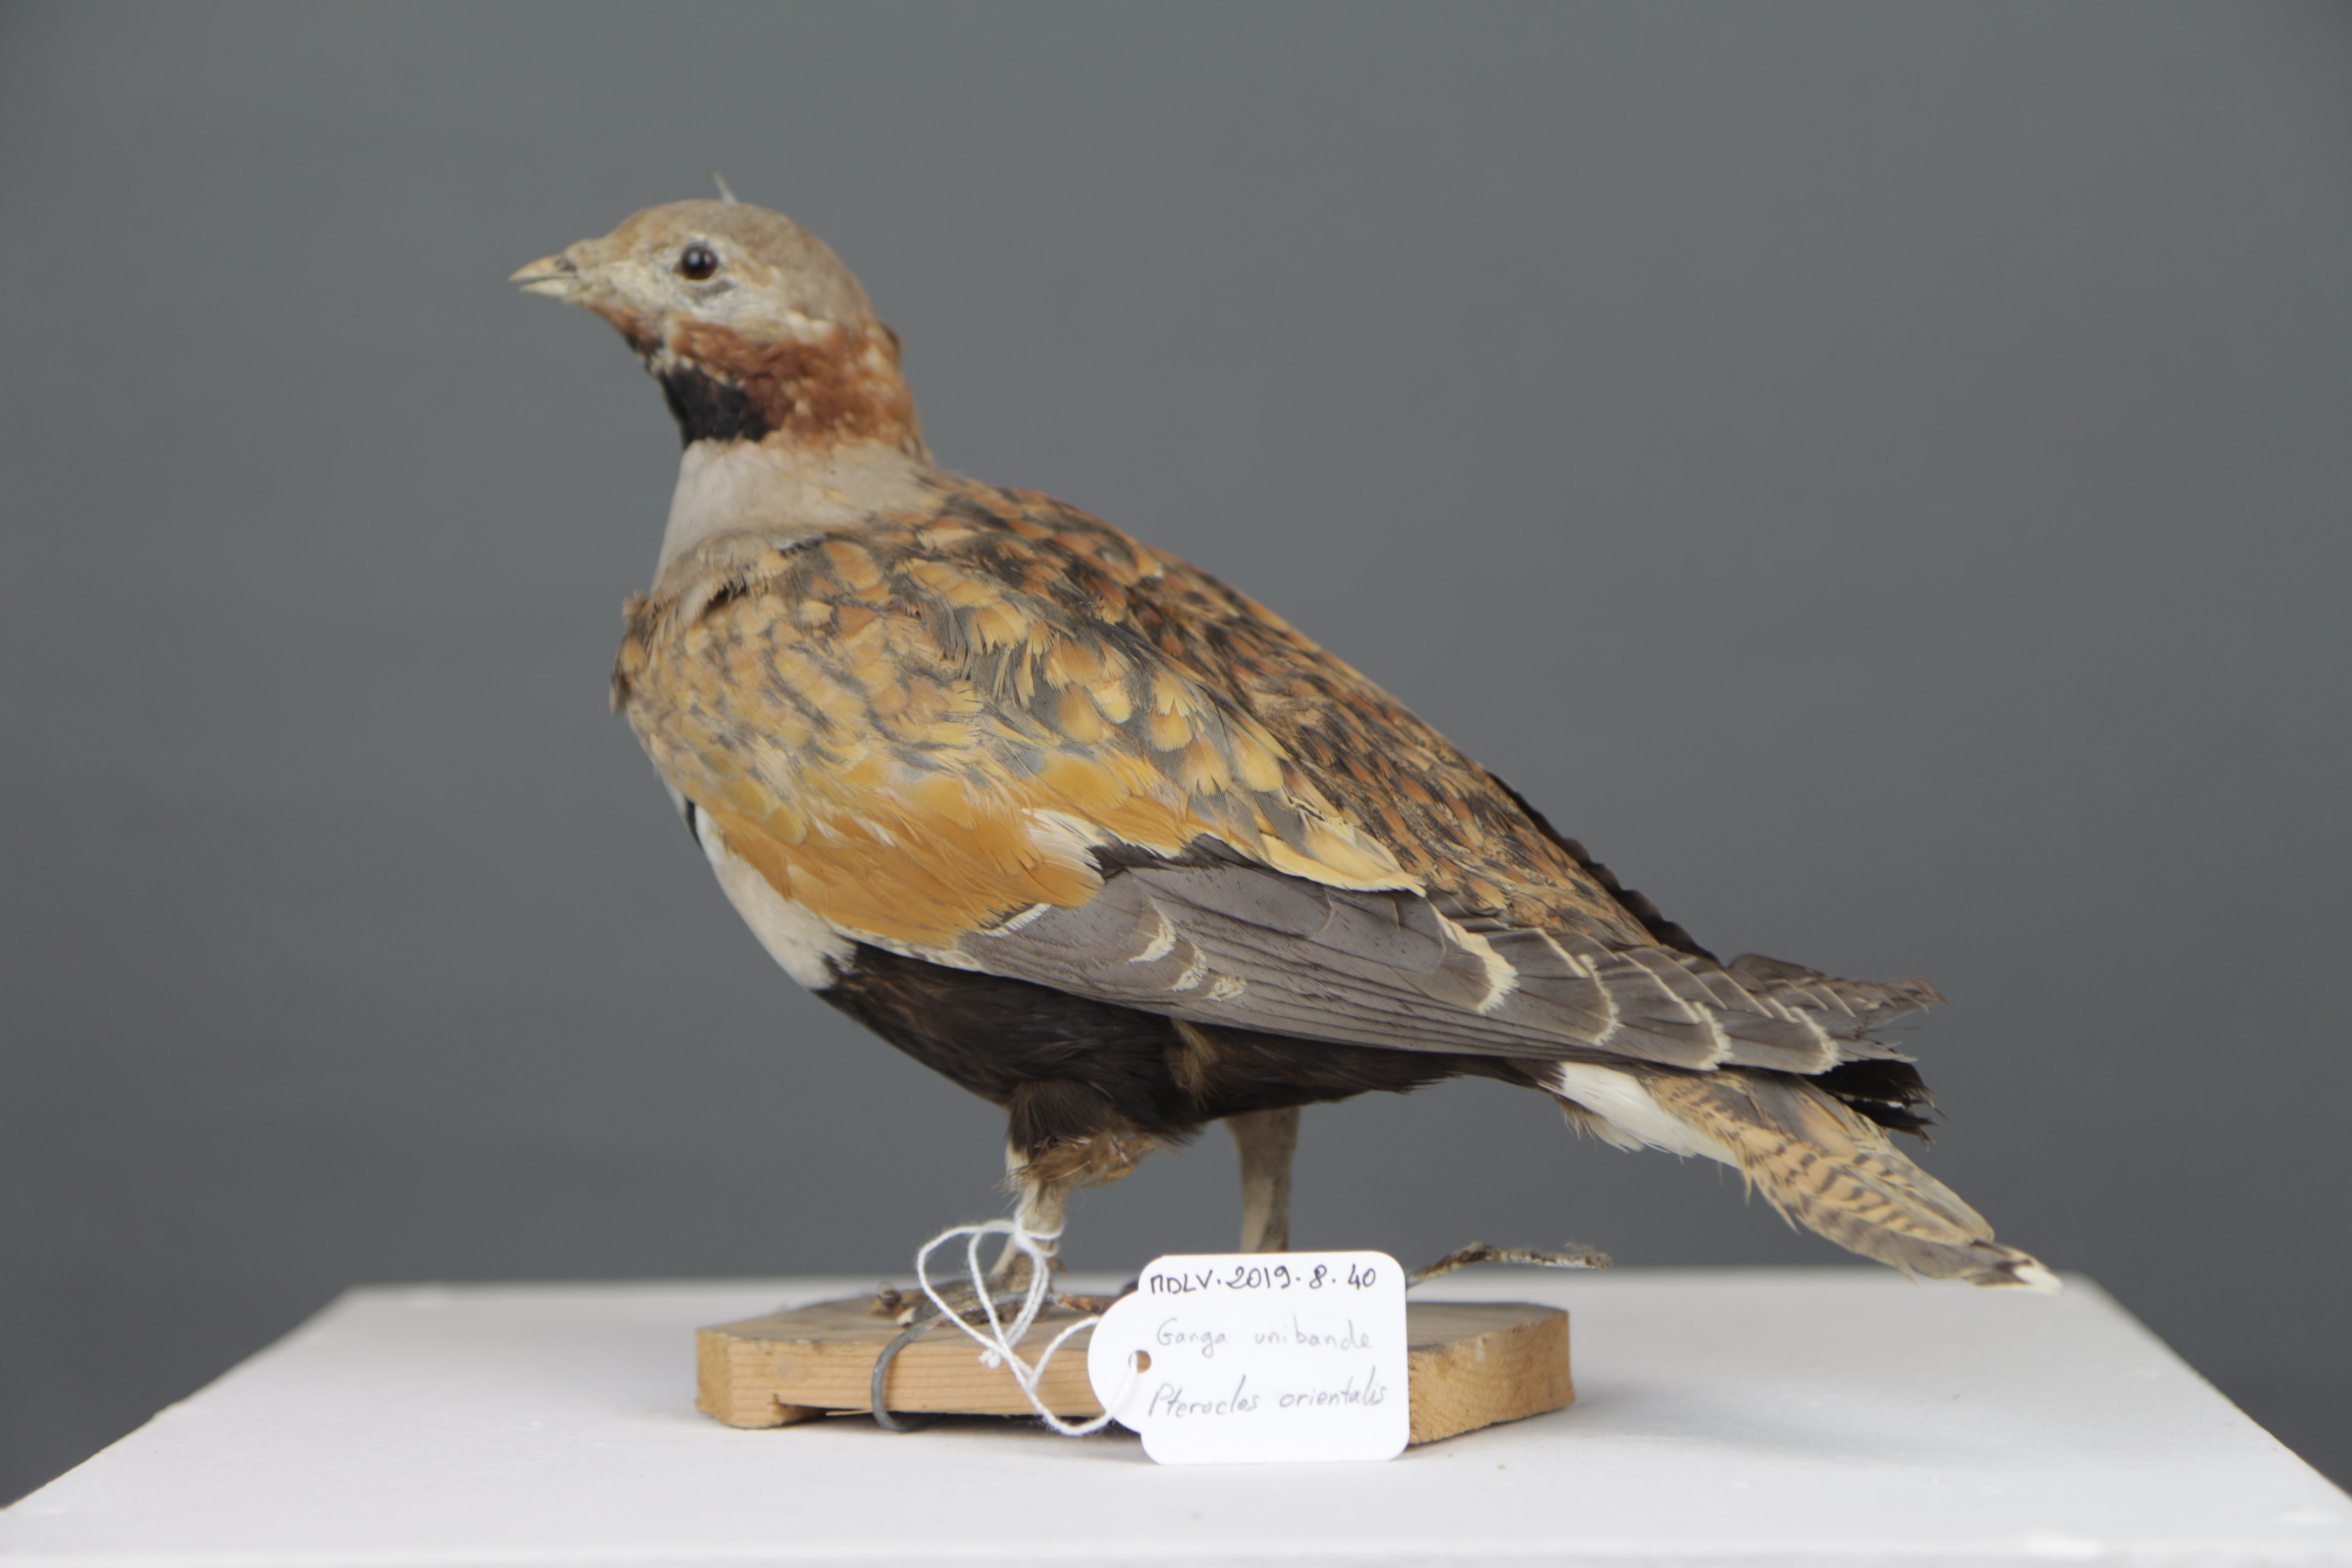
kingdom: Animalia
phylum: Chordata
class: Aves
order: Pteroclidiformes
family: Pteroclididae
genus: Pterocles
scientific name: Pterocles orientalis
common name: Black-bellied sandgrouse
